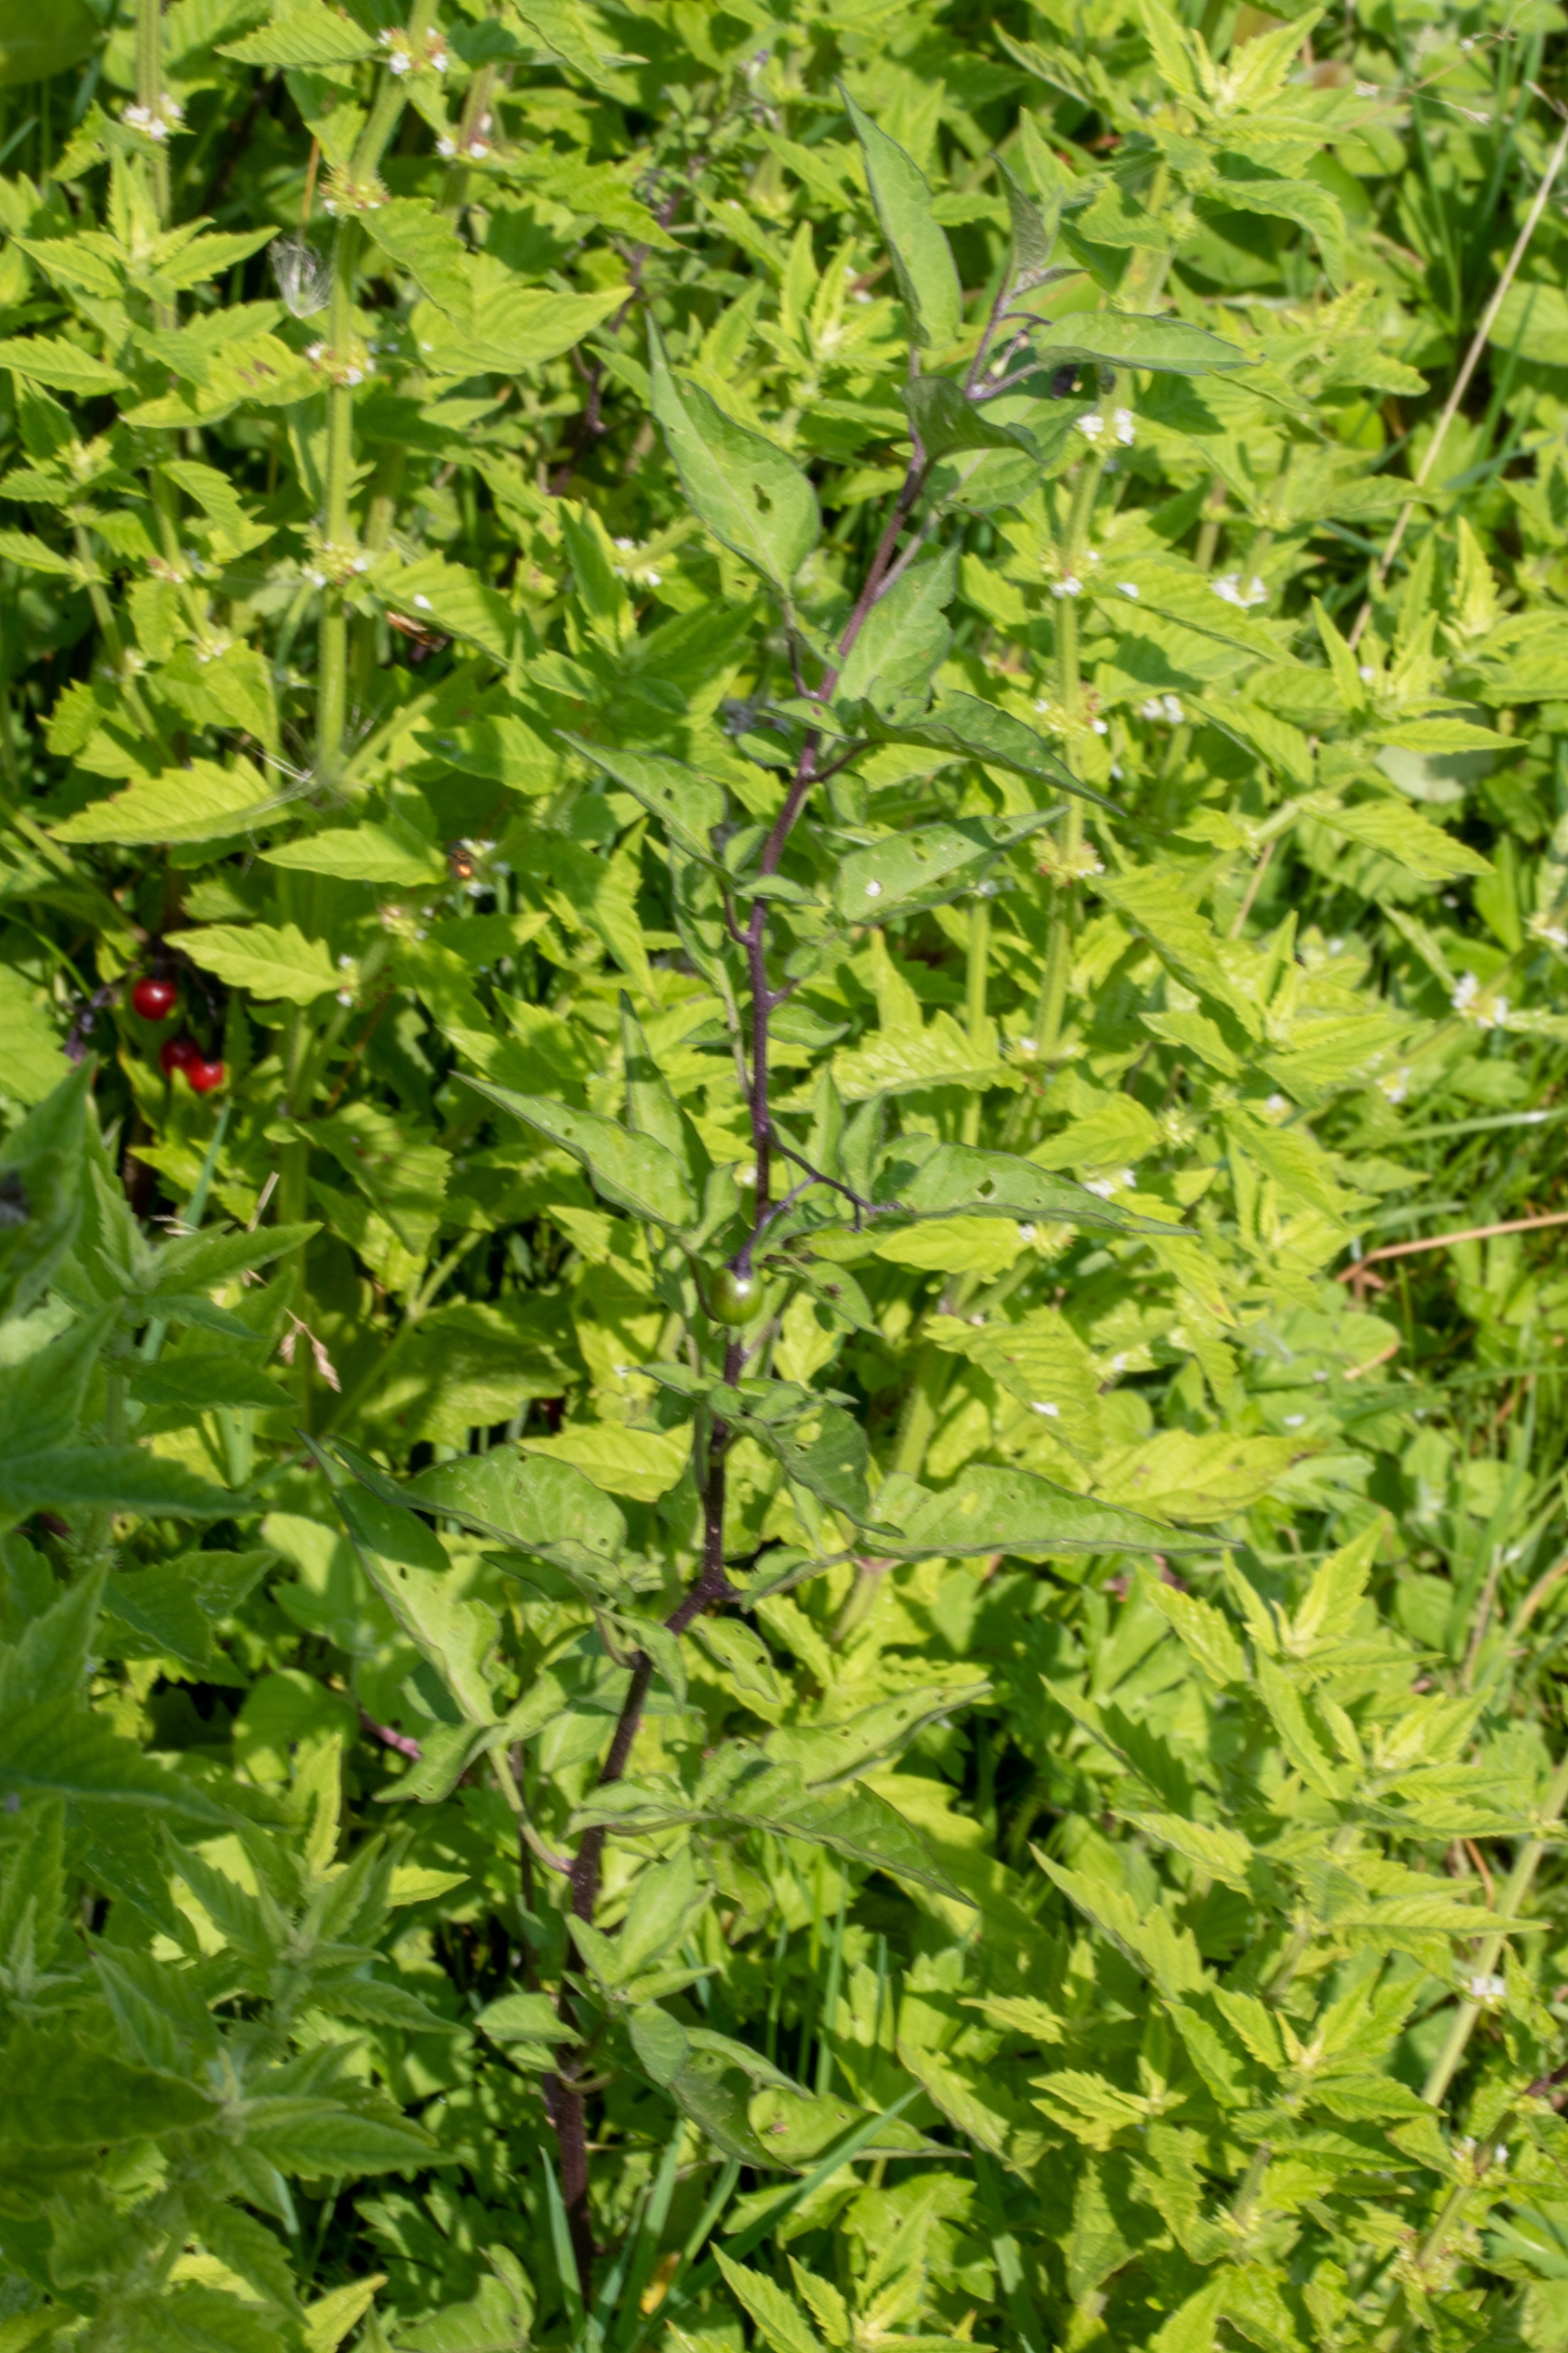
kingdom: Plantae
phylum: Tracheophyta
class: Magnoliopsida
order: Solanales
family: Solanaceae
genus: Solanum
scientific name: Solanum dulcamara
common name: Bittersød natskygge
